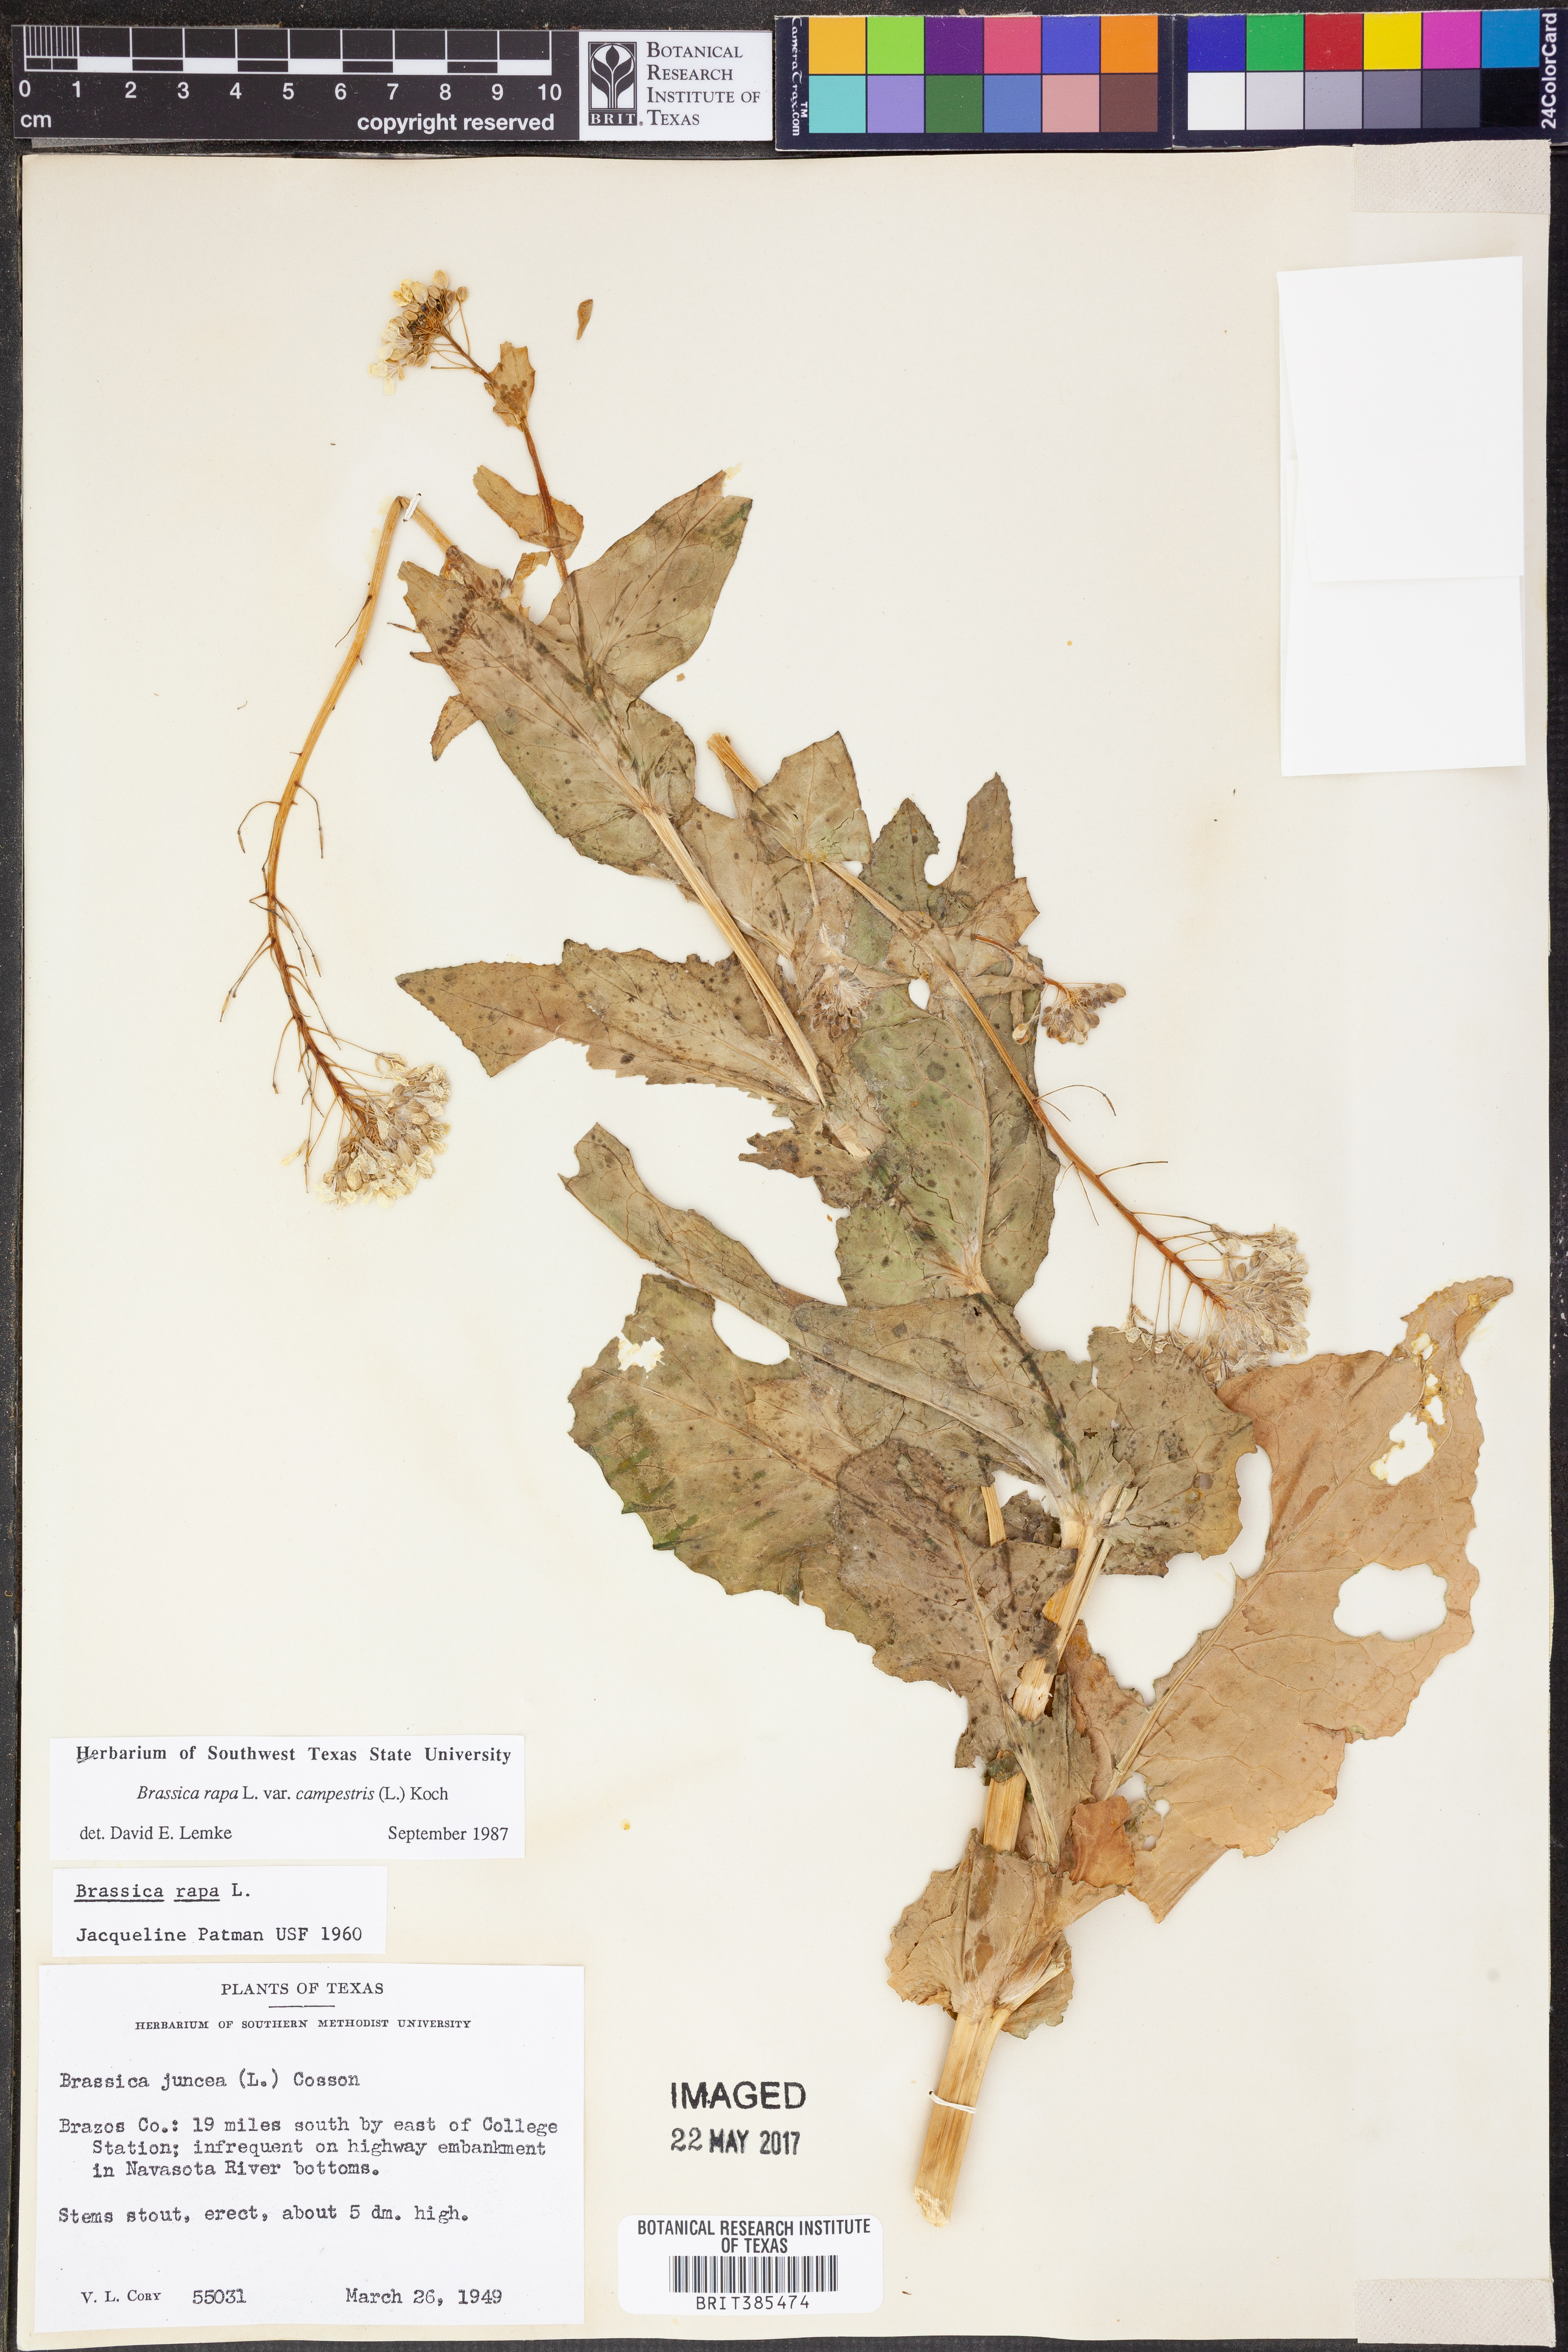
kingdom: Plantae
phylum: Tracheophyta
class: Magnoliopsida
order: Brassicales
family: Brassicaceae
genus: Brassica
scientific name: Brassica rapa
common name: Field mustard
